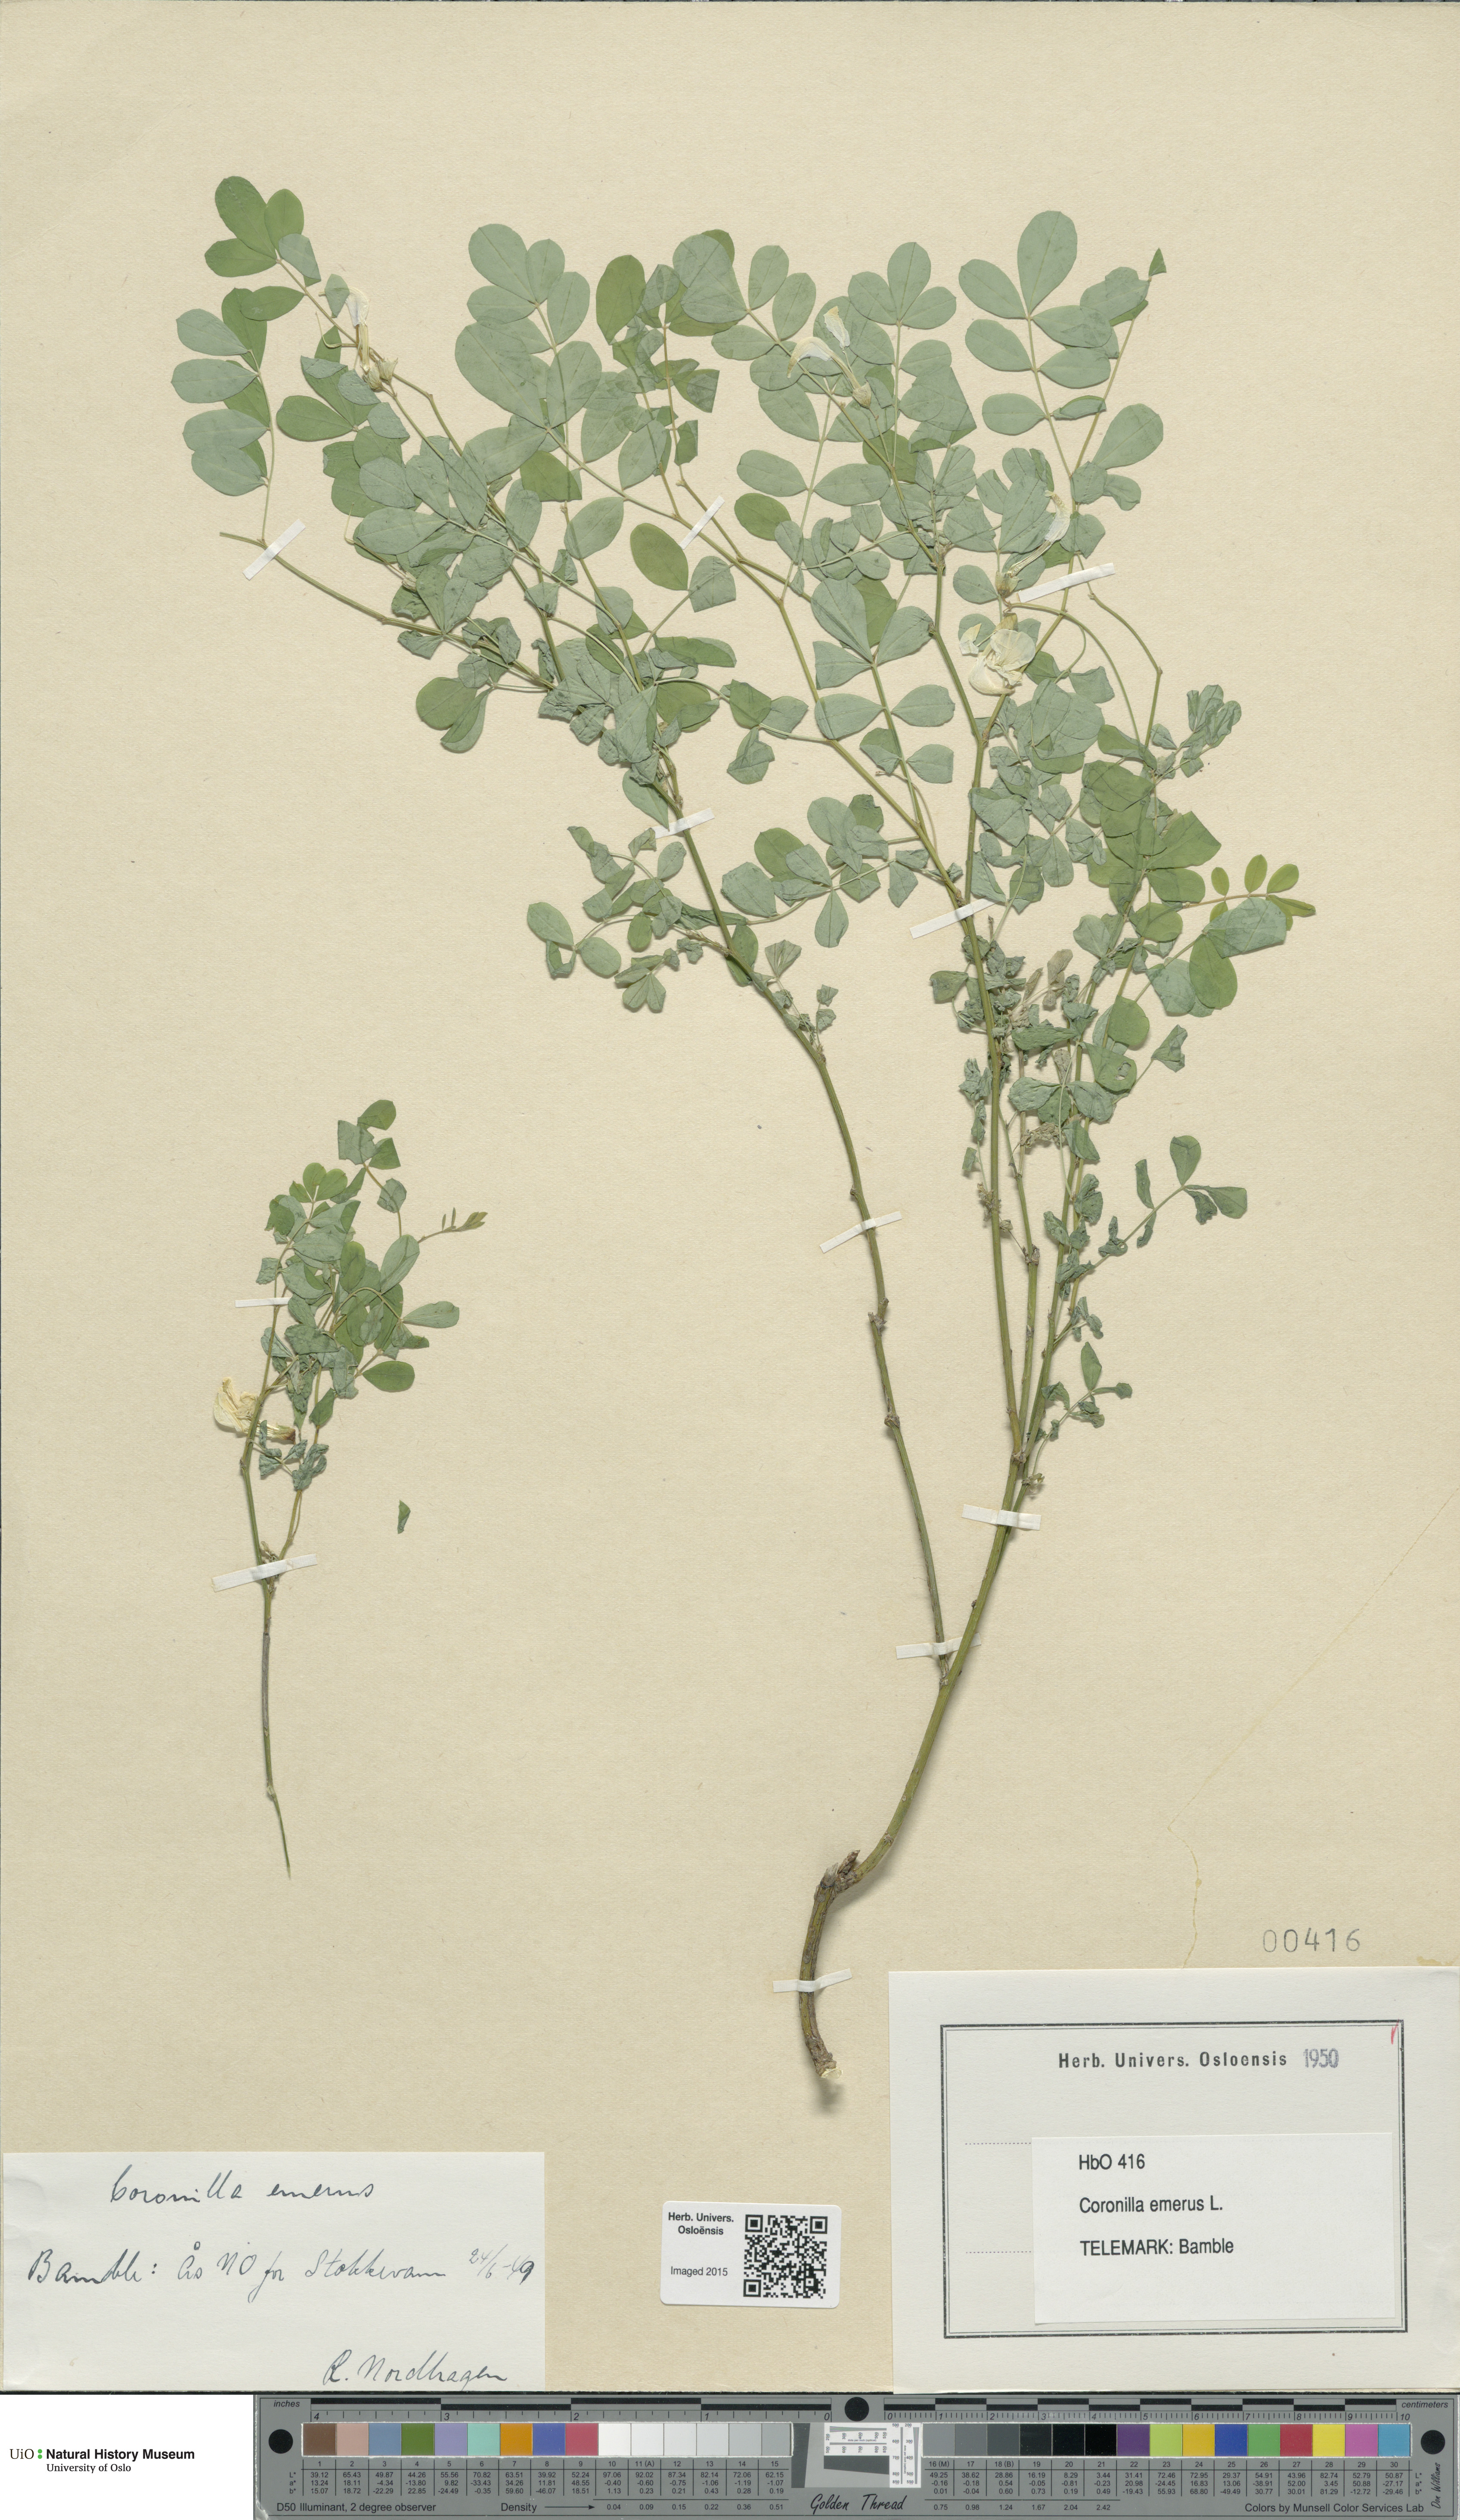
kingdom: Plantae
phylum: Tracheophyta
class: Magnoliopsida
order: Fabales
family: Fabaceae
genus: Hippocrepis
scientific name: Hippocrepis emerus
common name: Scorpion senna
